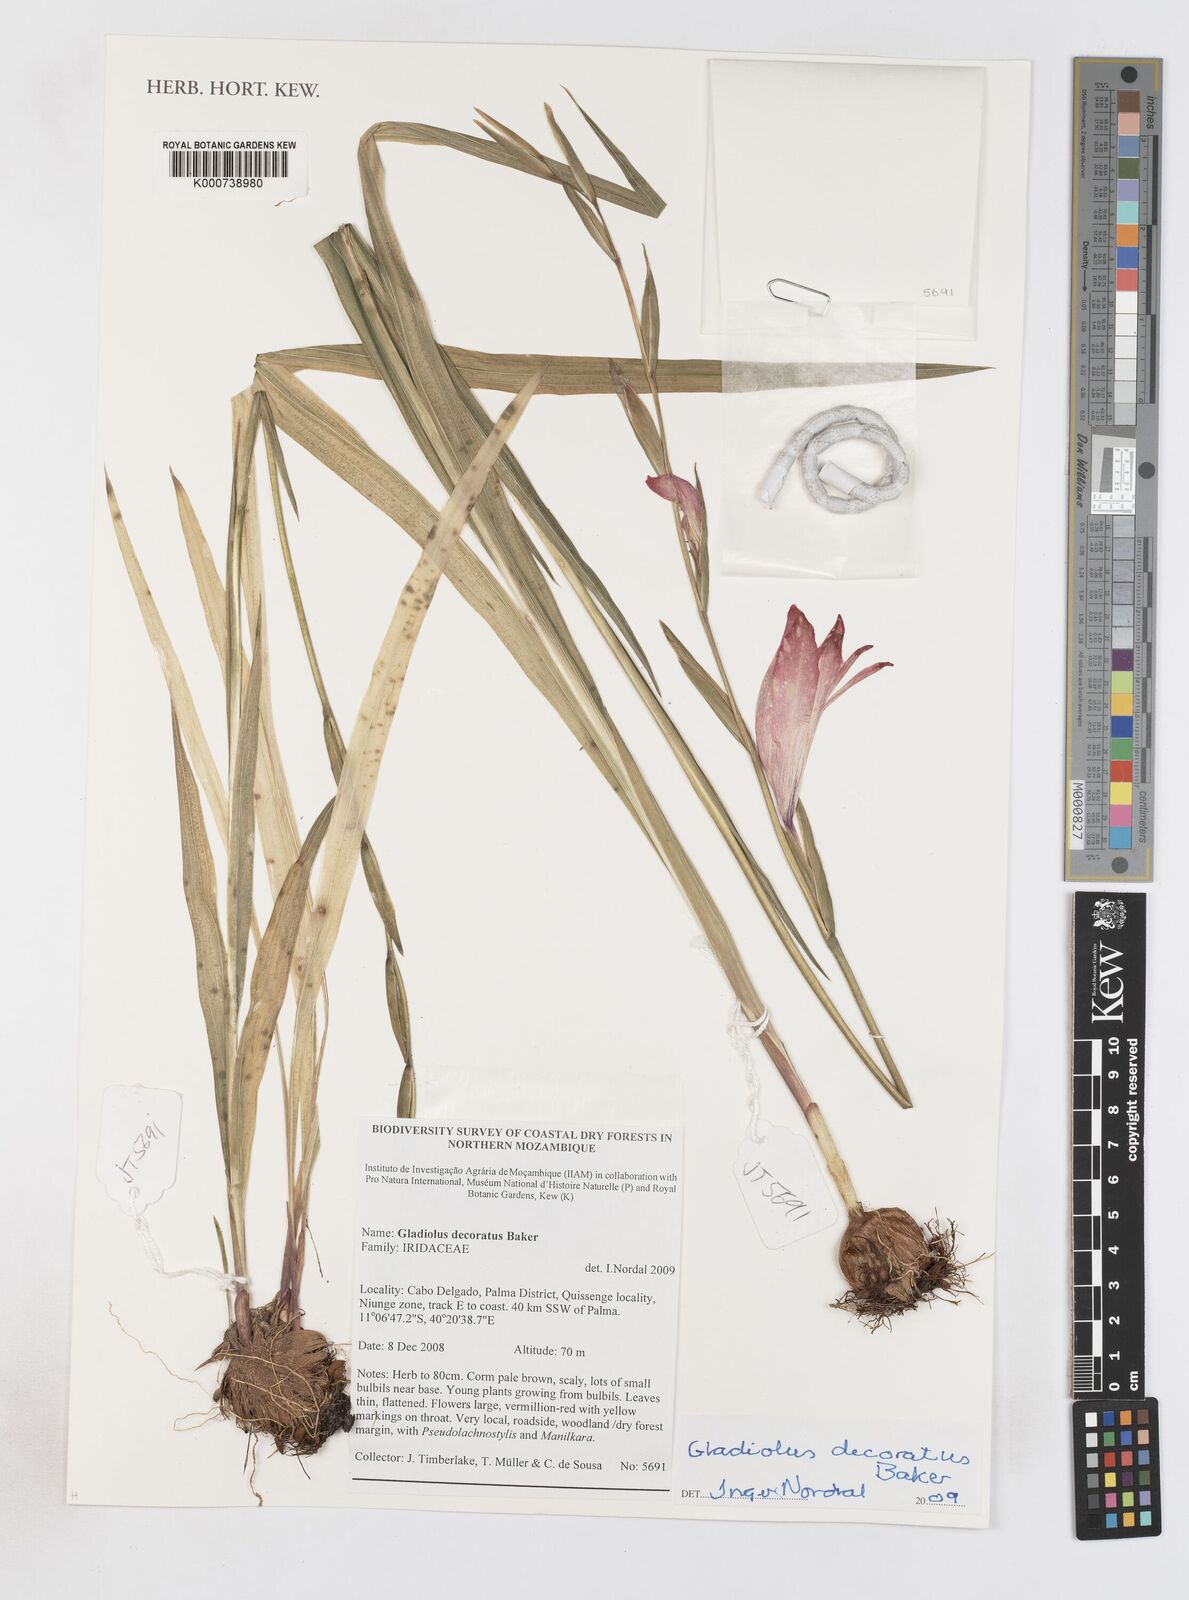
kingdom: Plantae
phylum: Tracheophyta
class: Liliopsida
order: Asparagales
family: Iridaceae
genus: Gladiolus
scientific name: Gladiolus decoratus
